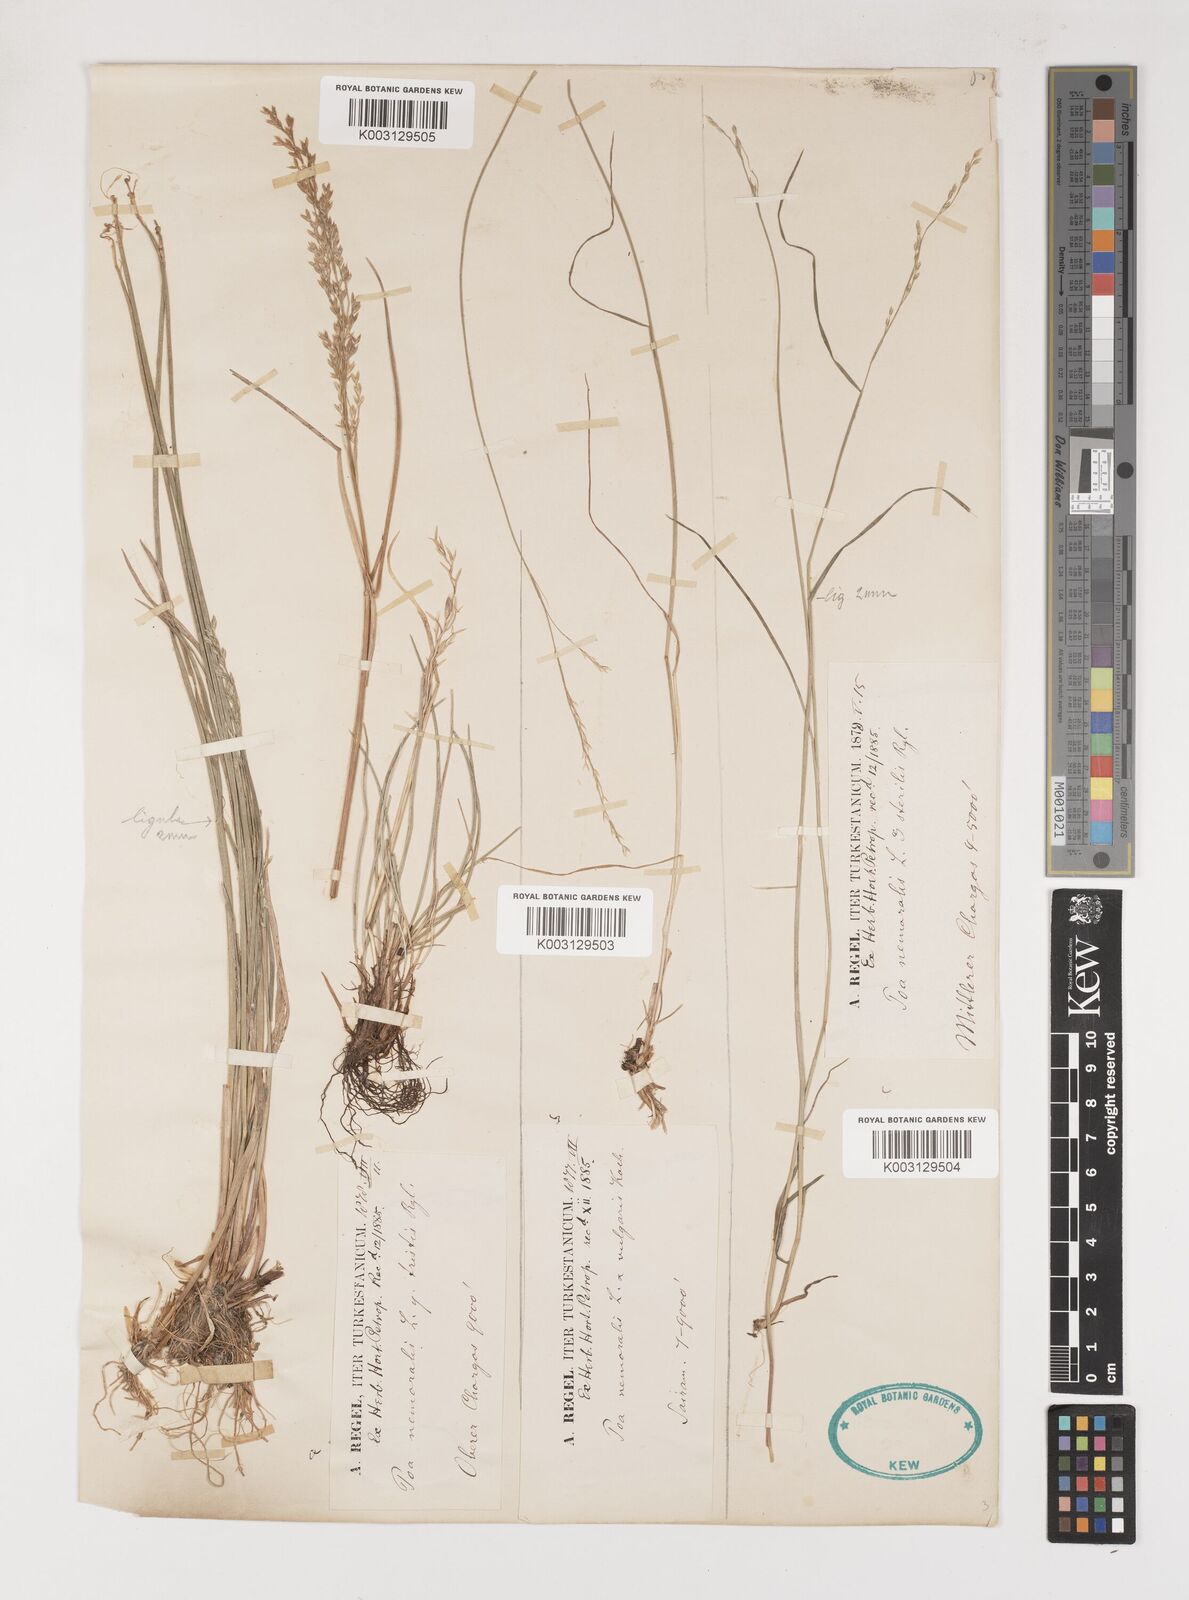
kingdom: Plantae
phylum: Tracheophyta
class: Liliopsida
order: Poales
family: Poaceae
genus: Poa
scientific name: Poa
